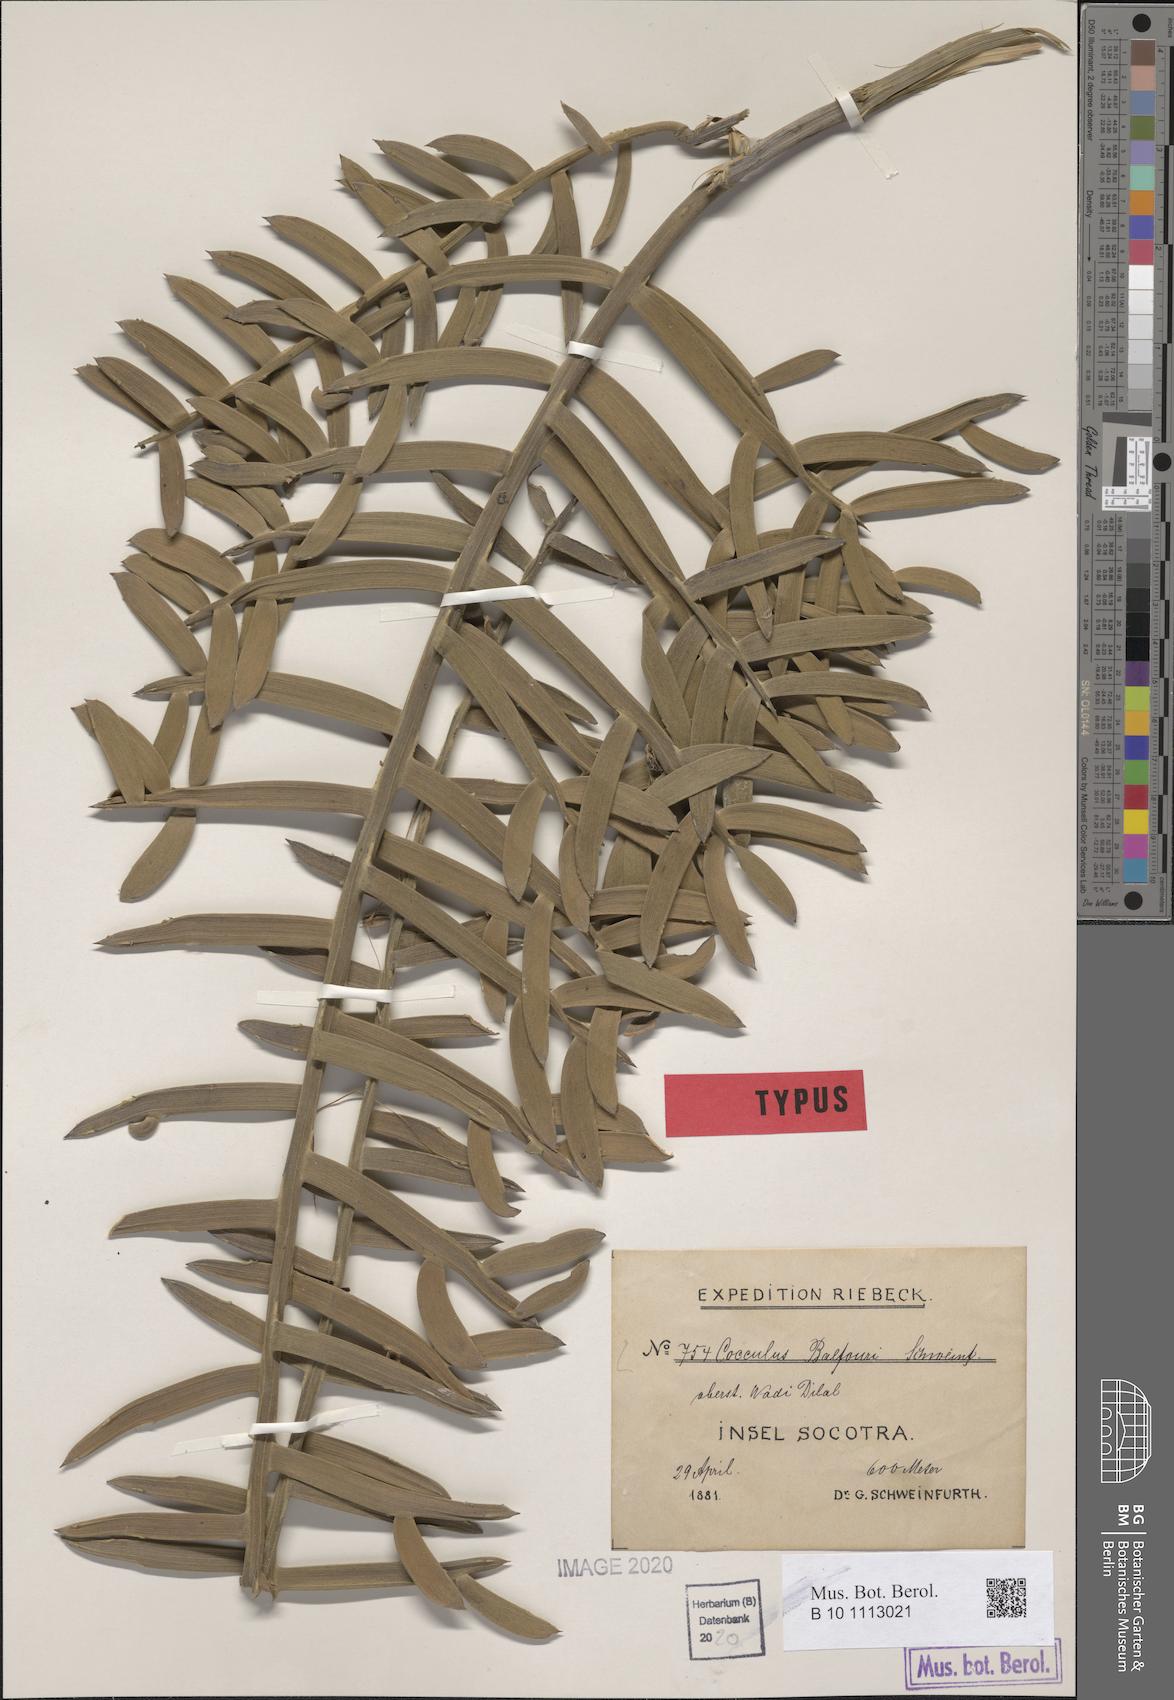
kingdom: Plantae
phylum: Tracheophyta
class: Magnoliopsida
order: Ranunculales
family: Menispermaceae
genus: Cocculus
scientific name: Cocculus balfourii
